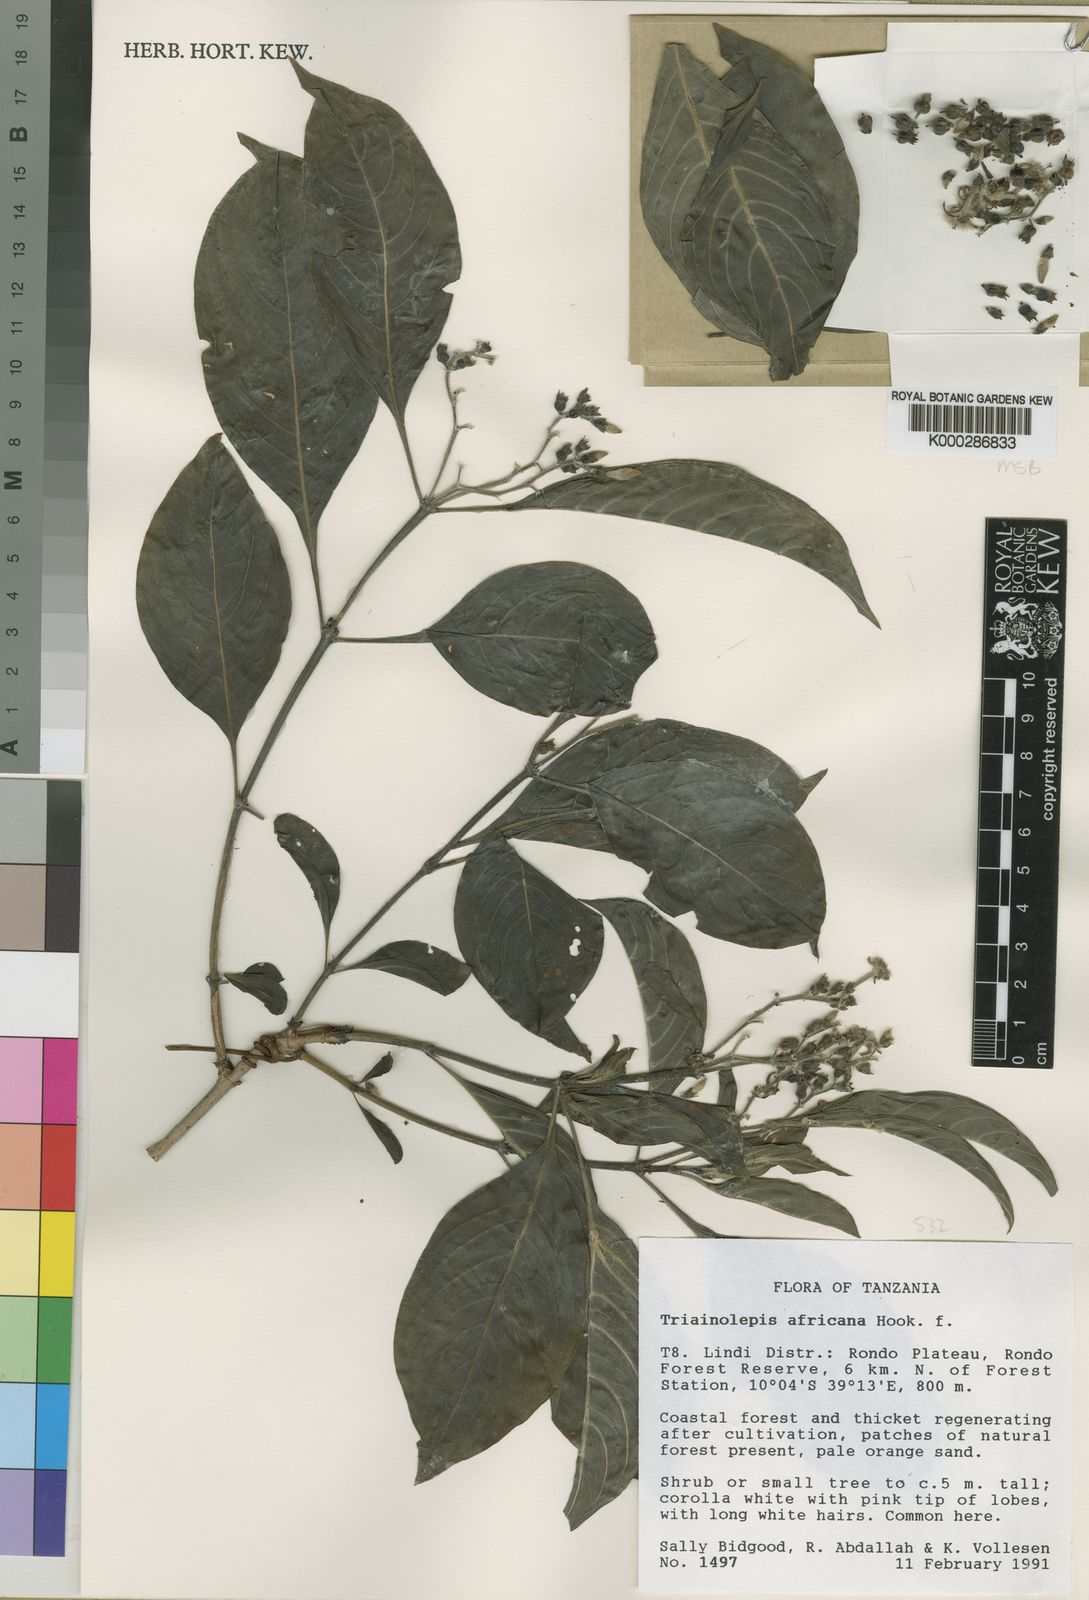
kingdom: Plantae
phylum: Tracheophyta
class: Magnoliopsida
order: Gentianales
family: Rubiaceae
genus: Triainolepis
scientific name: Triainolepis africana
